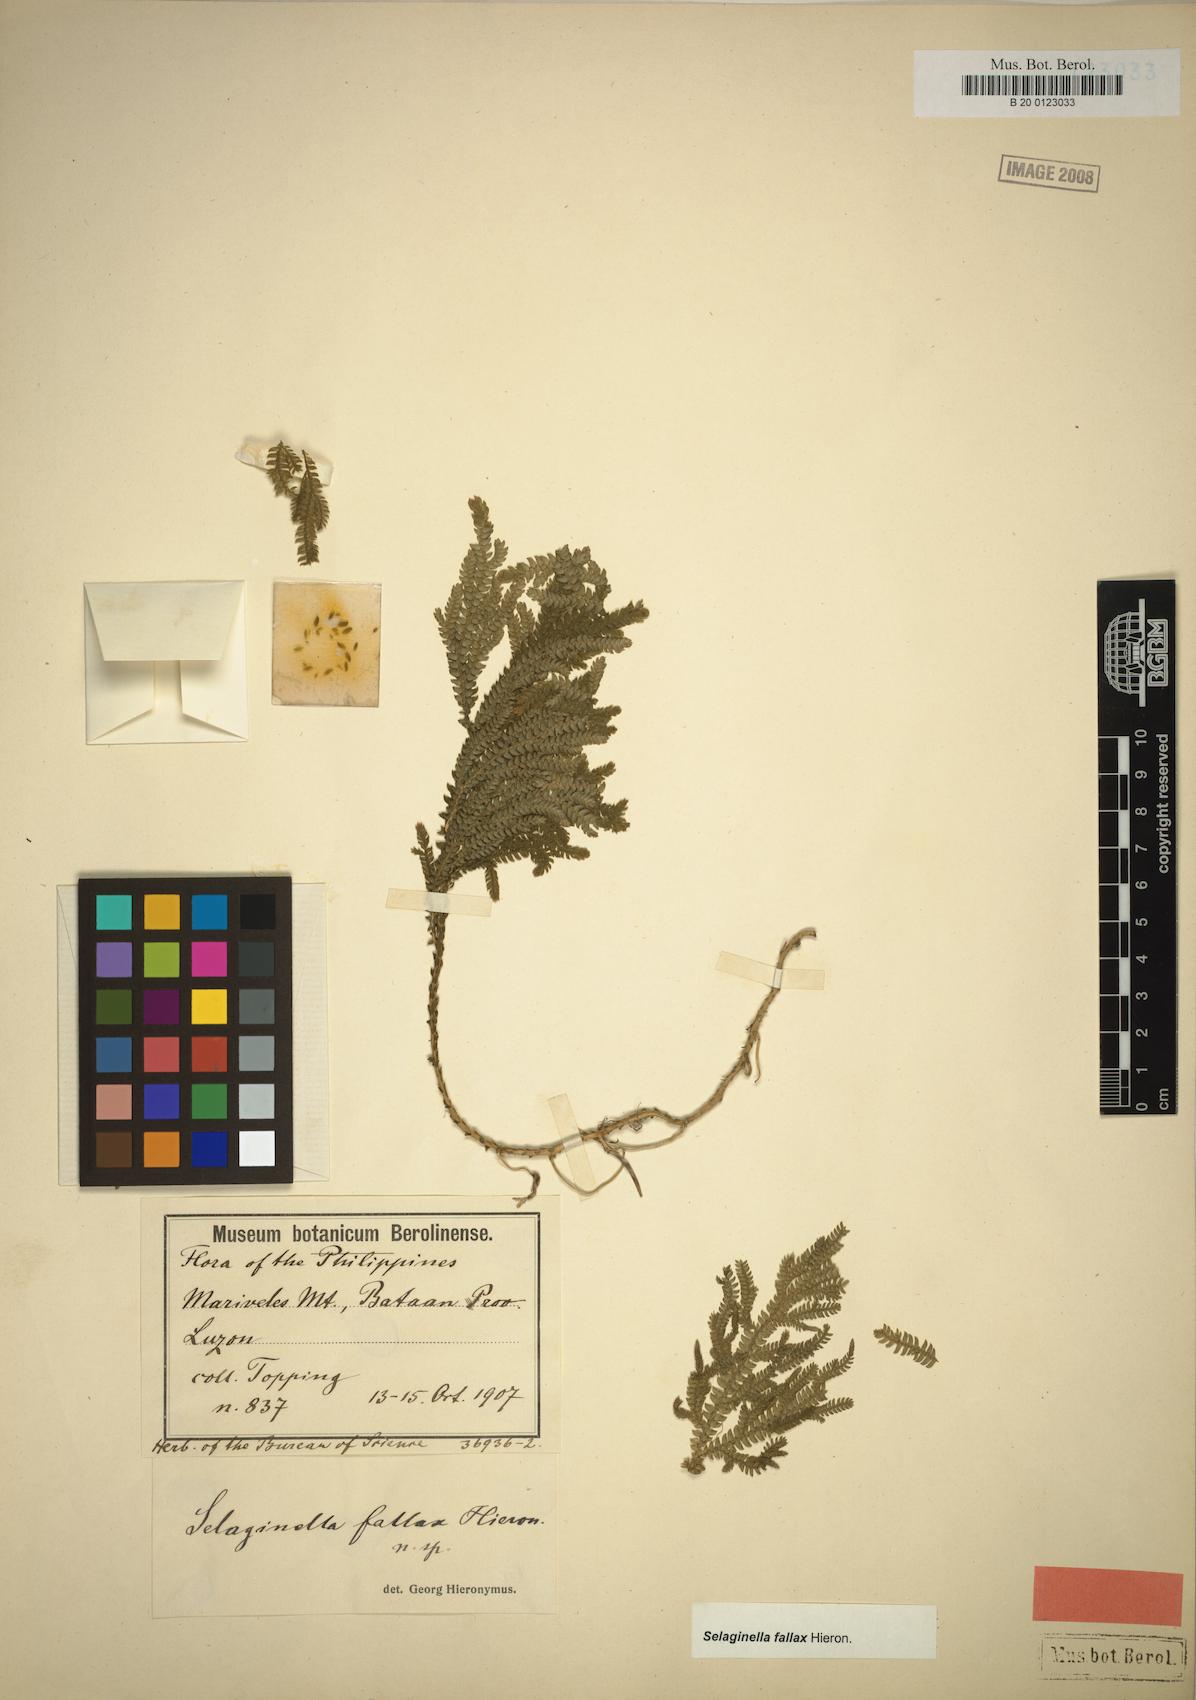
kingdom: Plantae
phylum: Tracheophyta
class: Lycopodiopsida
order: Selaginellales
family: Selaginellaceae
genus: Selaginella
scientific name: Selaginella jagorii
